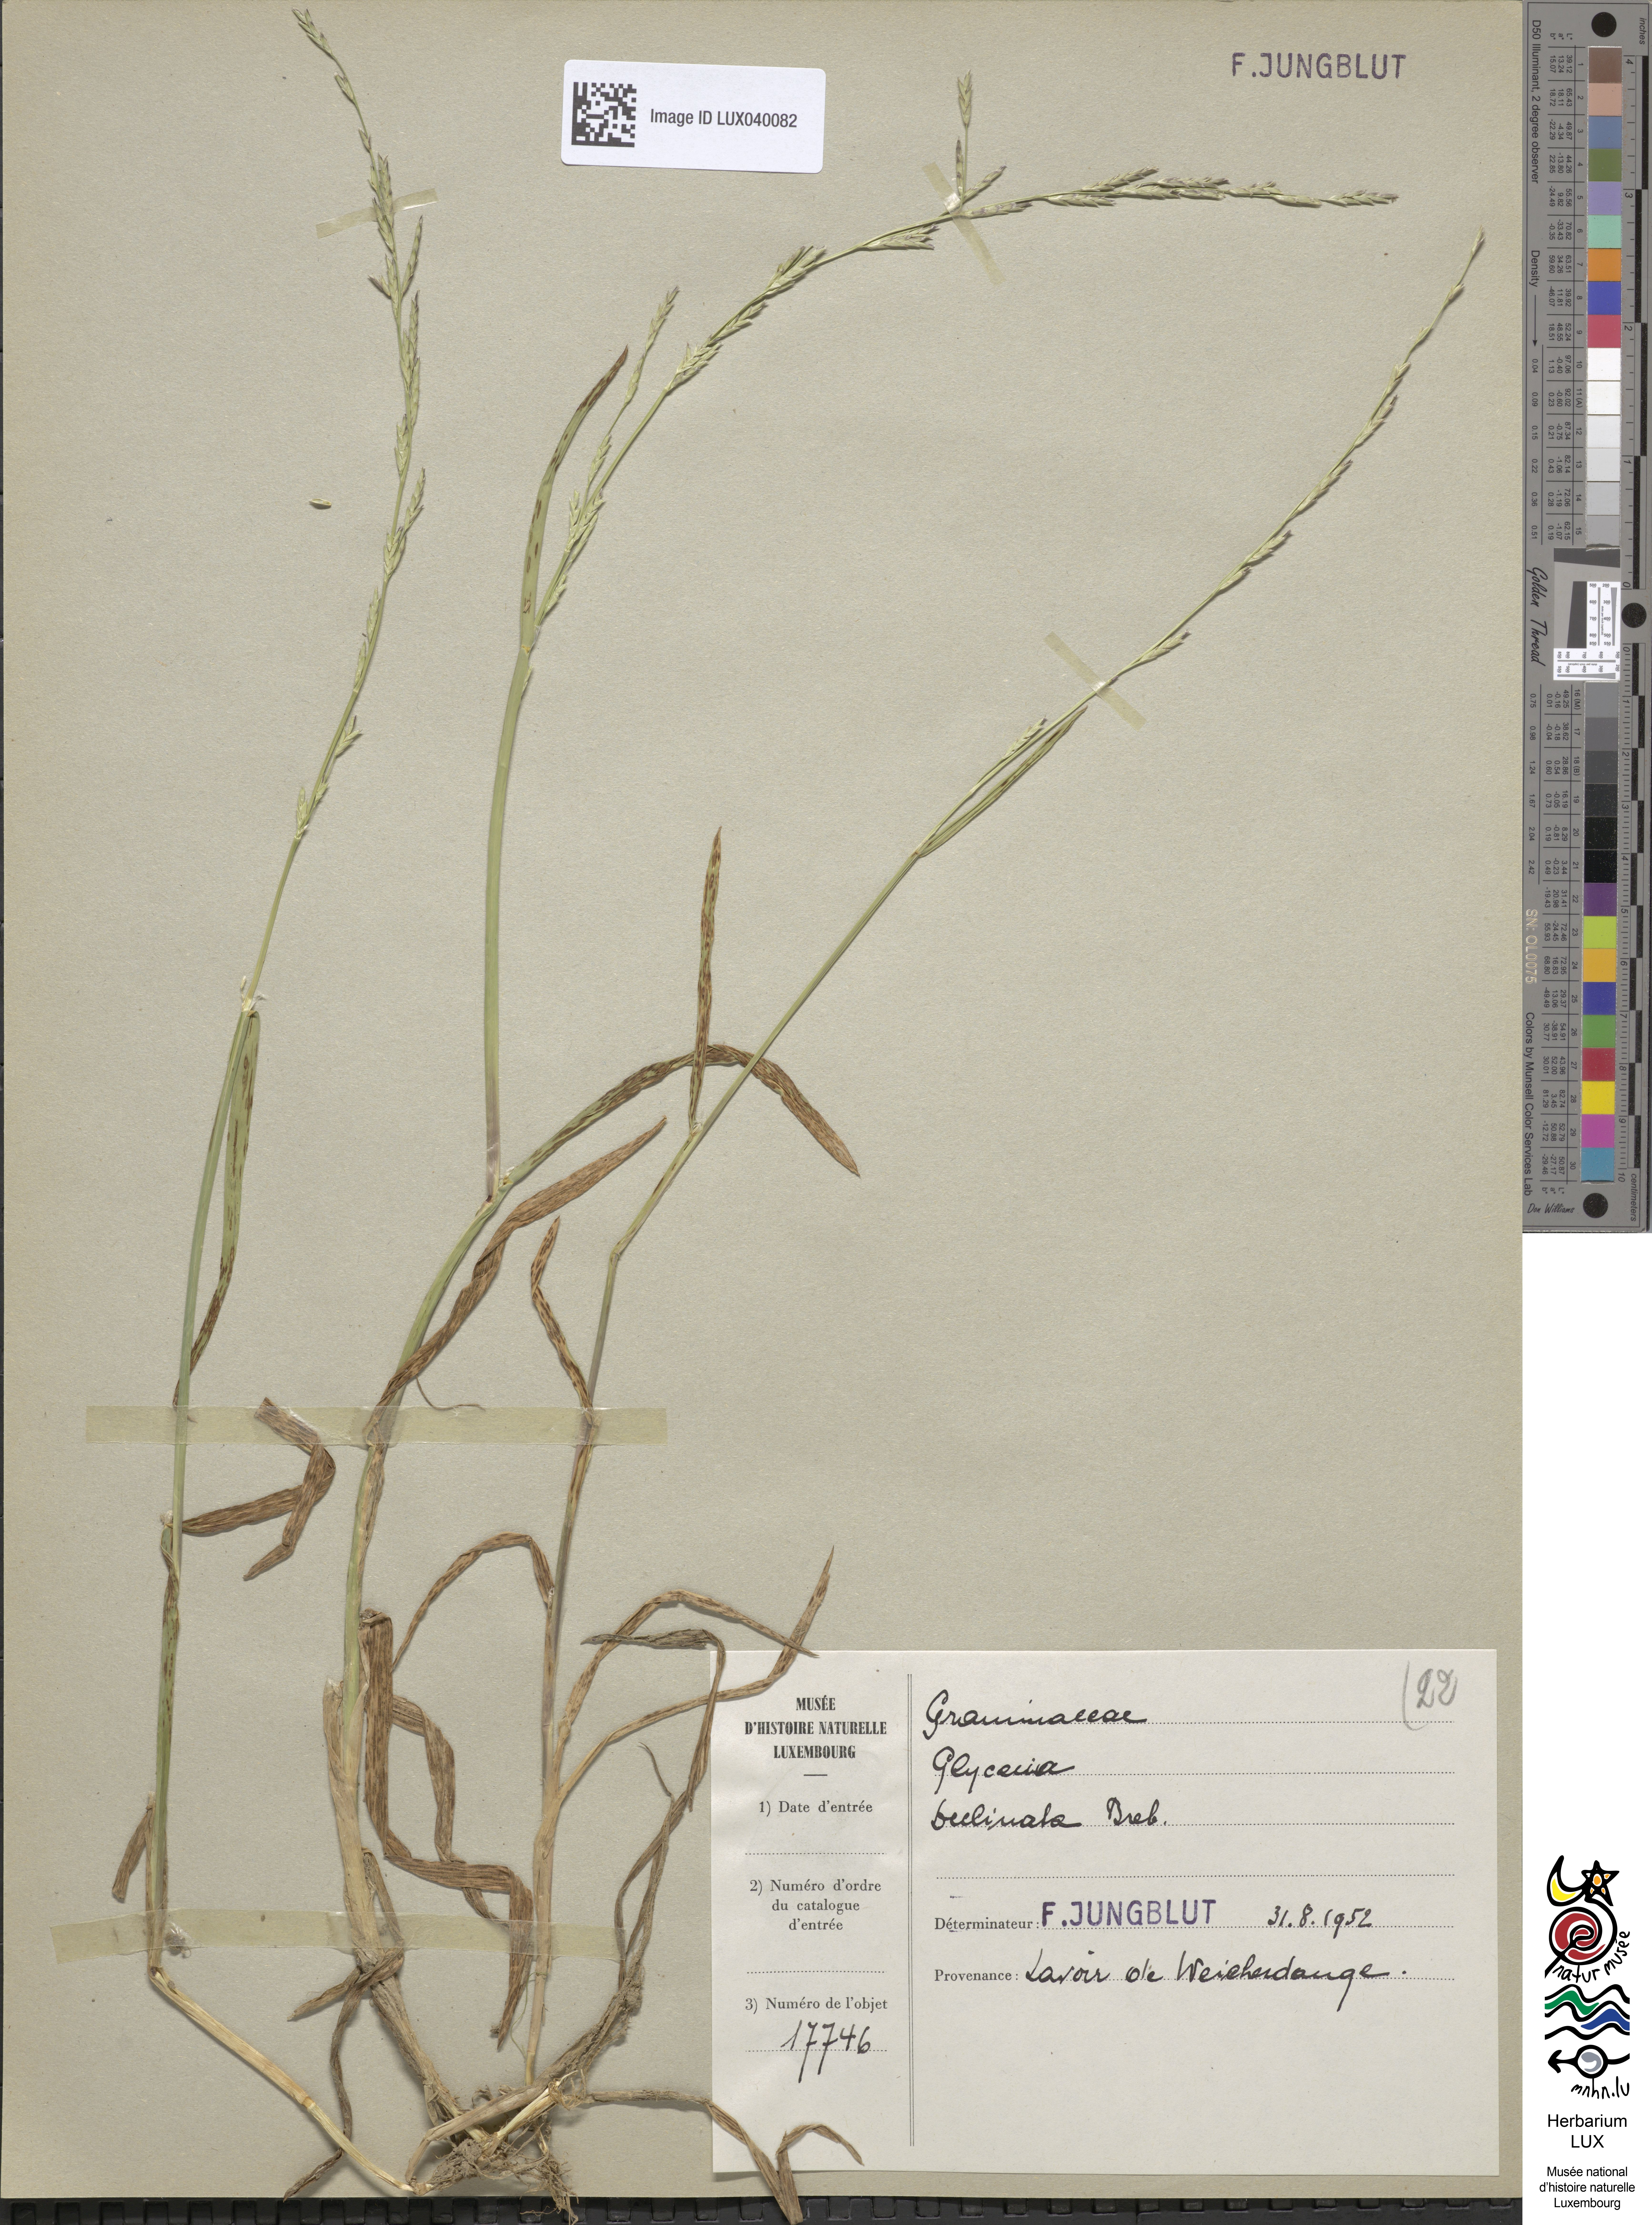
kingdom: Plantae
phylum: Tracheophyta
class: Liliopsida
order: Poales
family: Poaceae
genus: Glyceria
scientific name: Glyceria declinata
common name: Small sweet-grass
